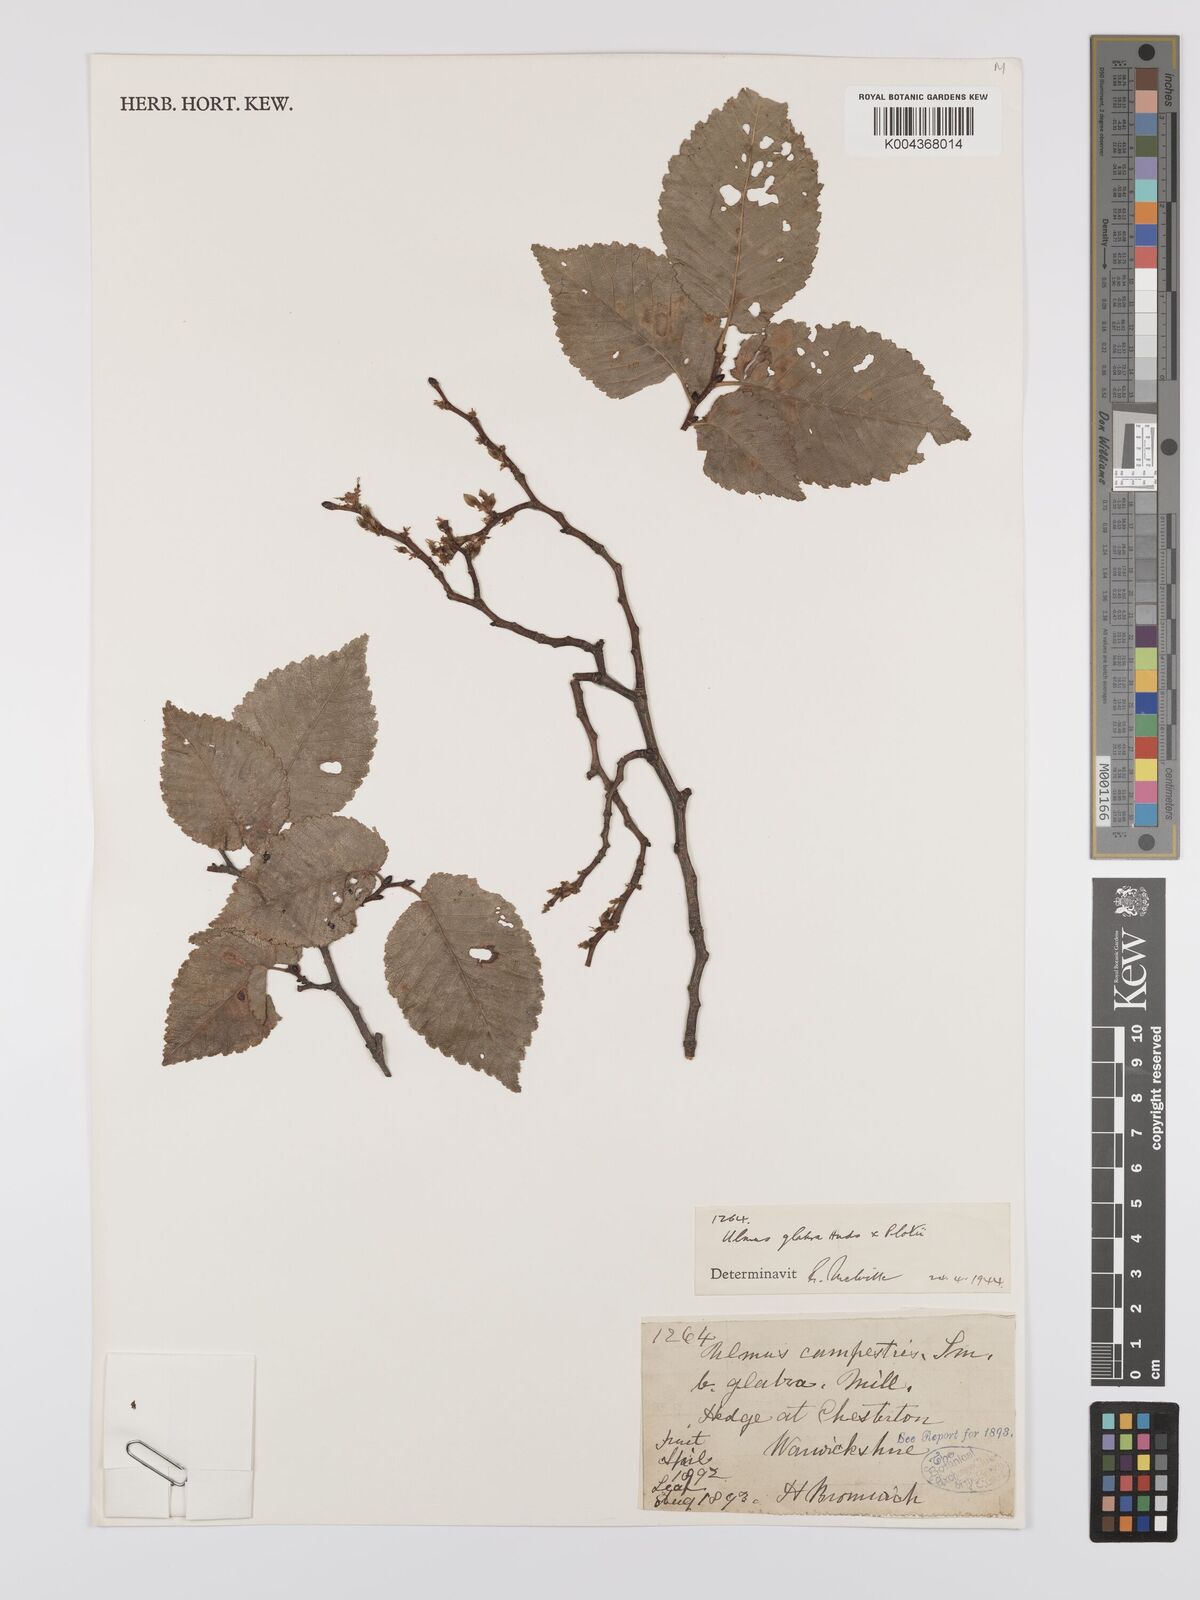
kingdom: Plantae
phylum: Tracheophyta
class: Magnoliopsida
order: Rosales
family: Ulmaceae
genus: Ulmus
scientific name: Ulmus
